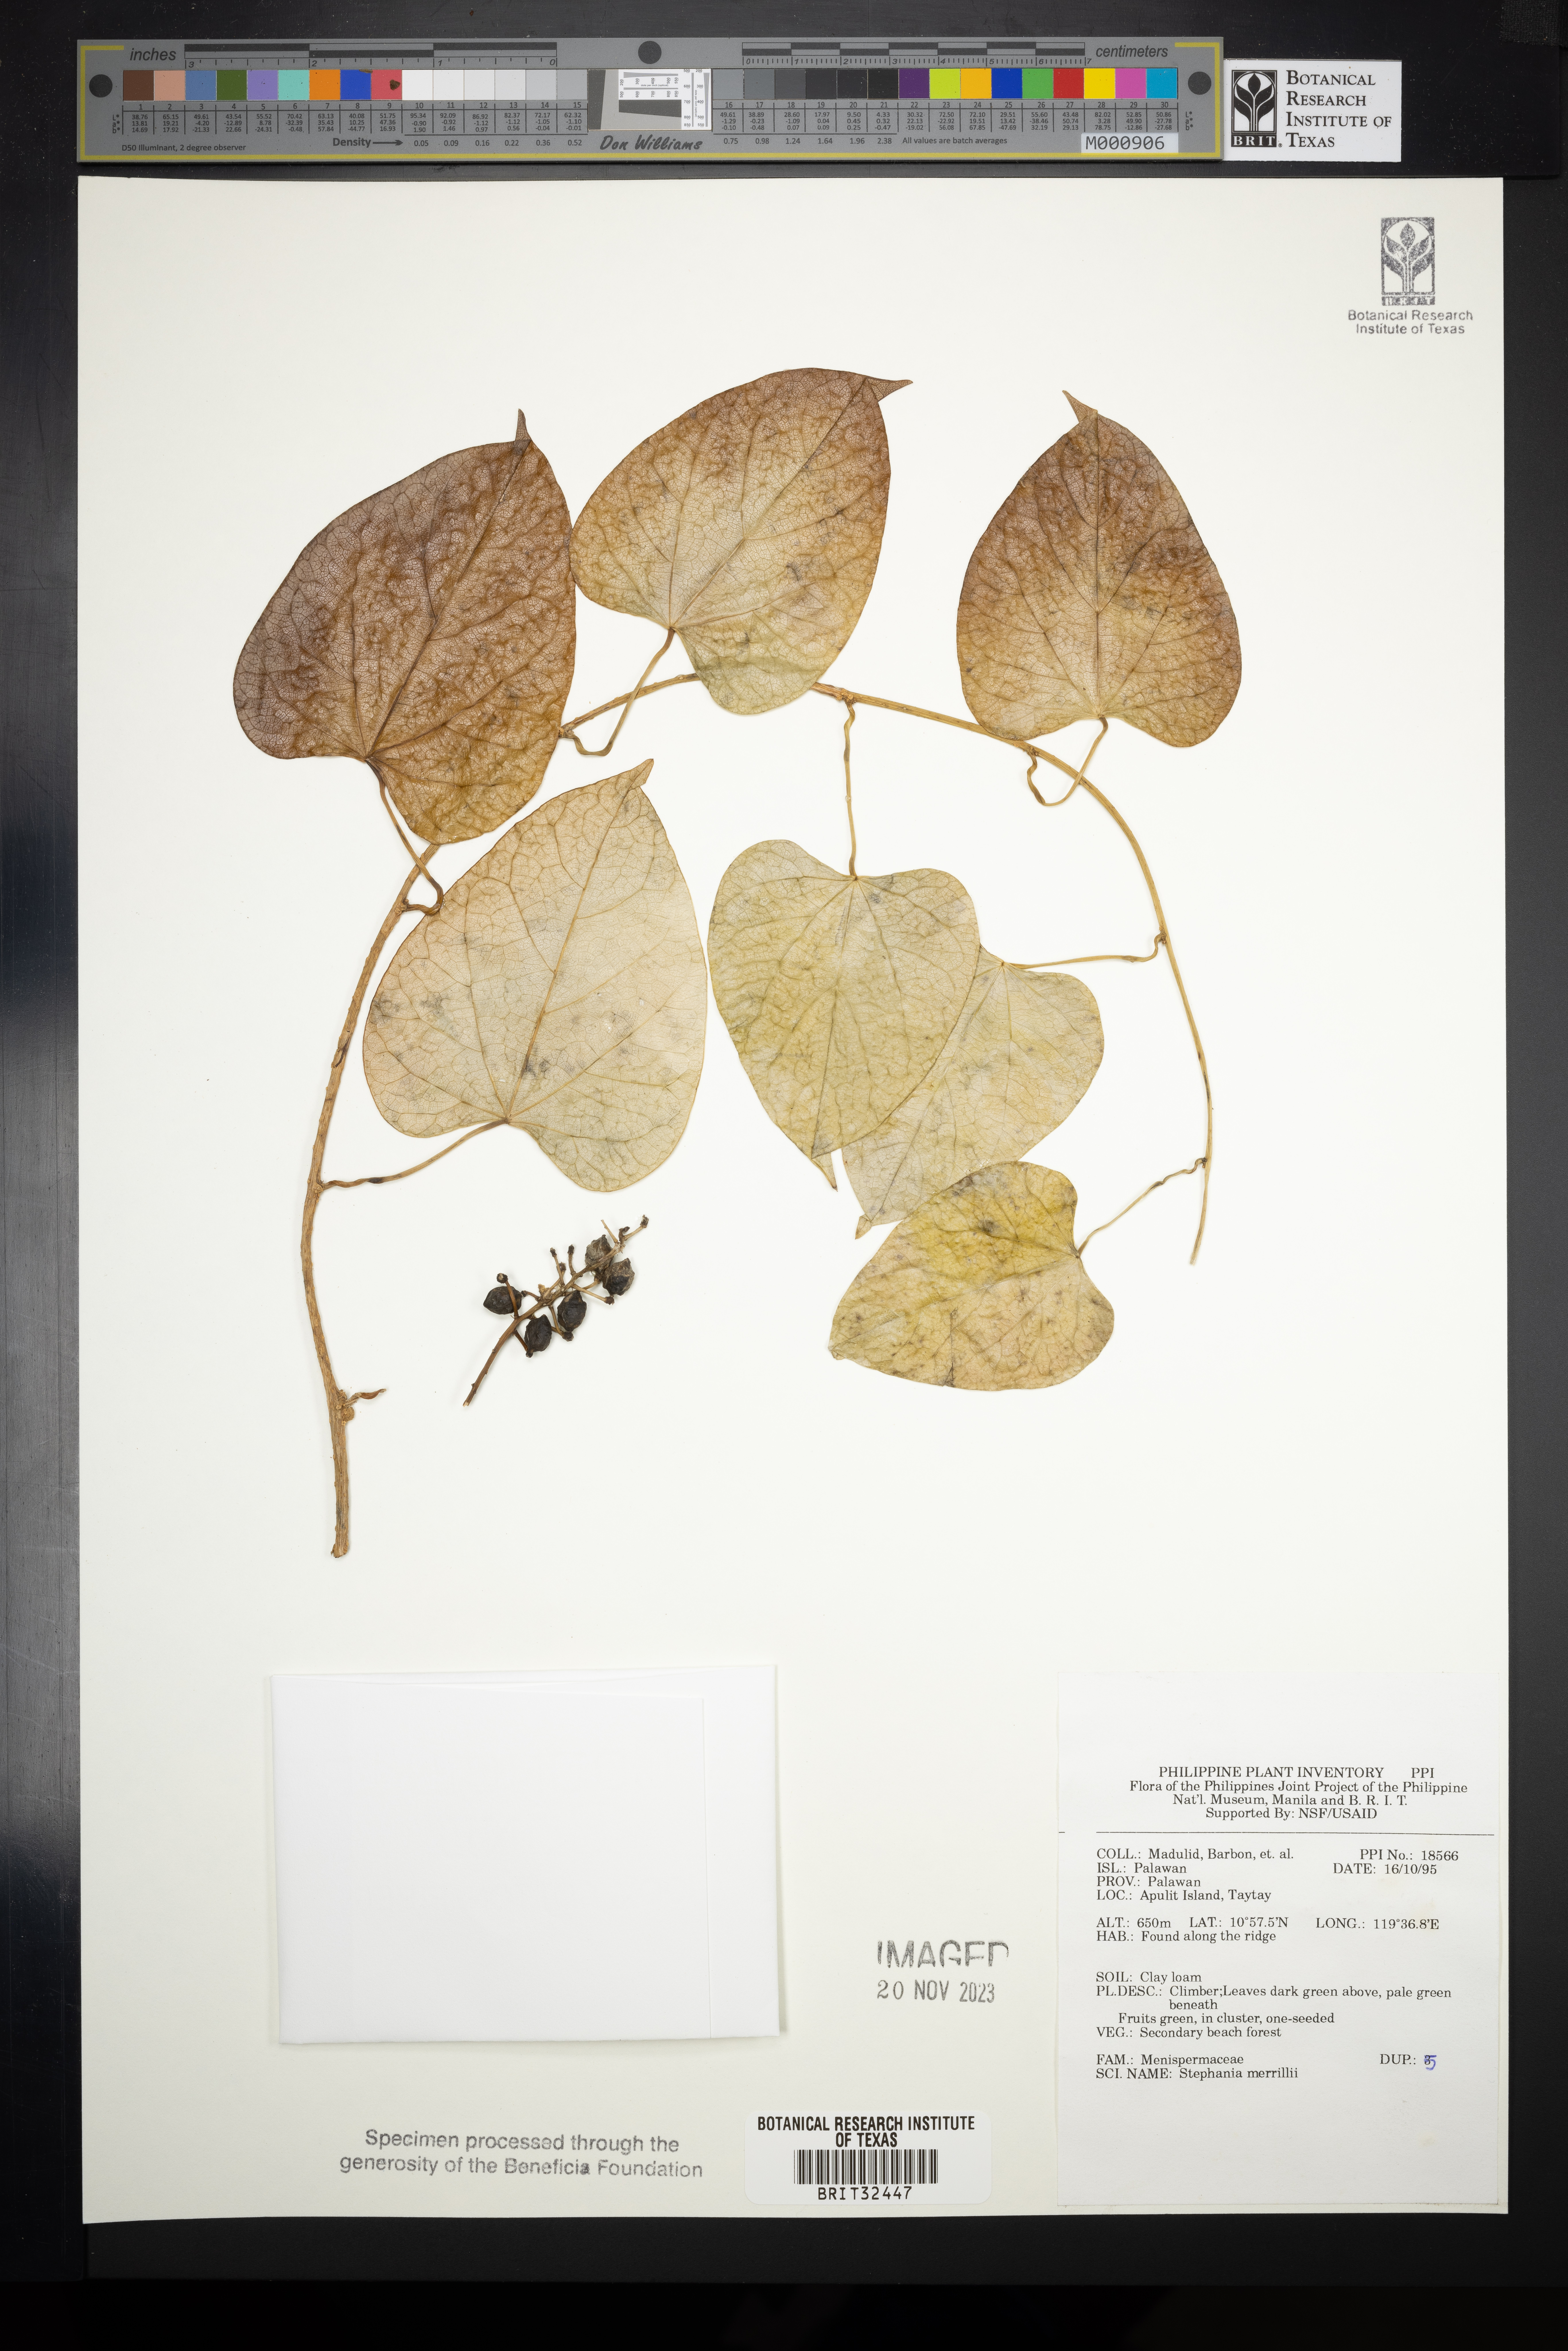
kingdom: Plantae
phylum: Tracheophyta
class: Magnoliopsida
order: Ranunculales
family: Menispermaceae
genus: Stephania
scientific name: Stephania merrillii
